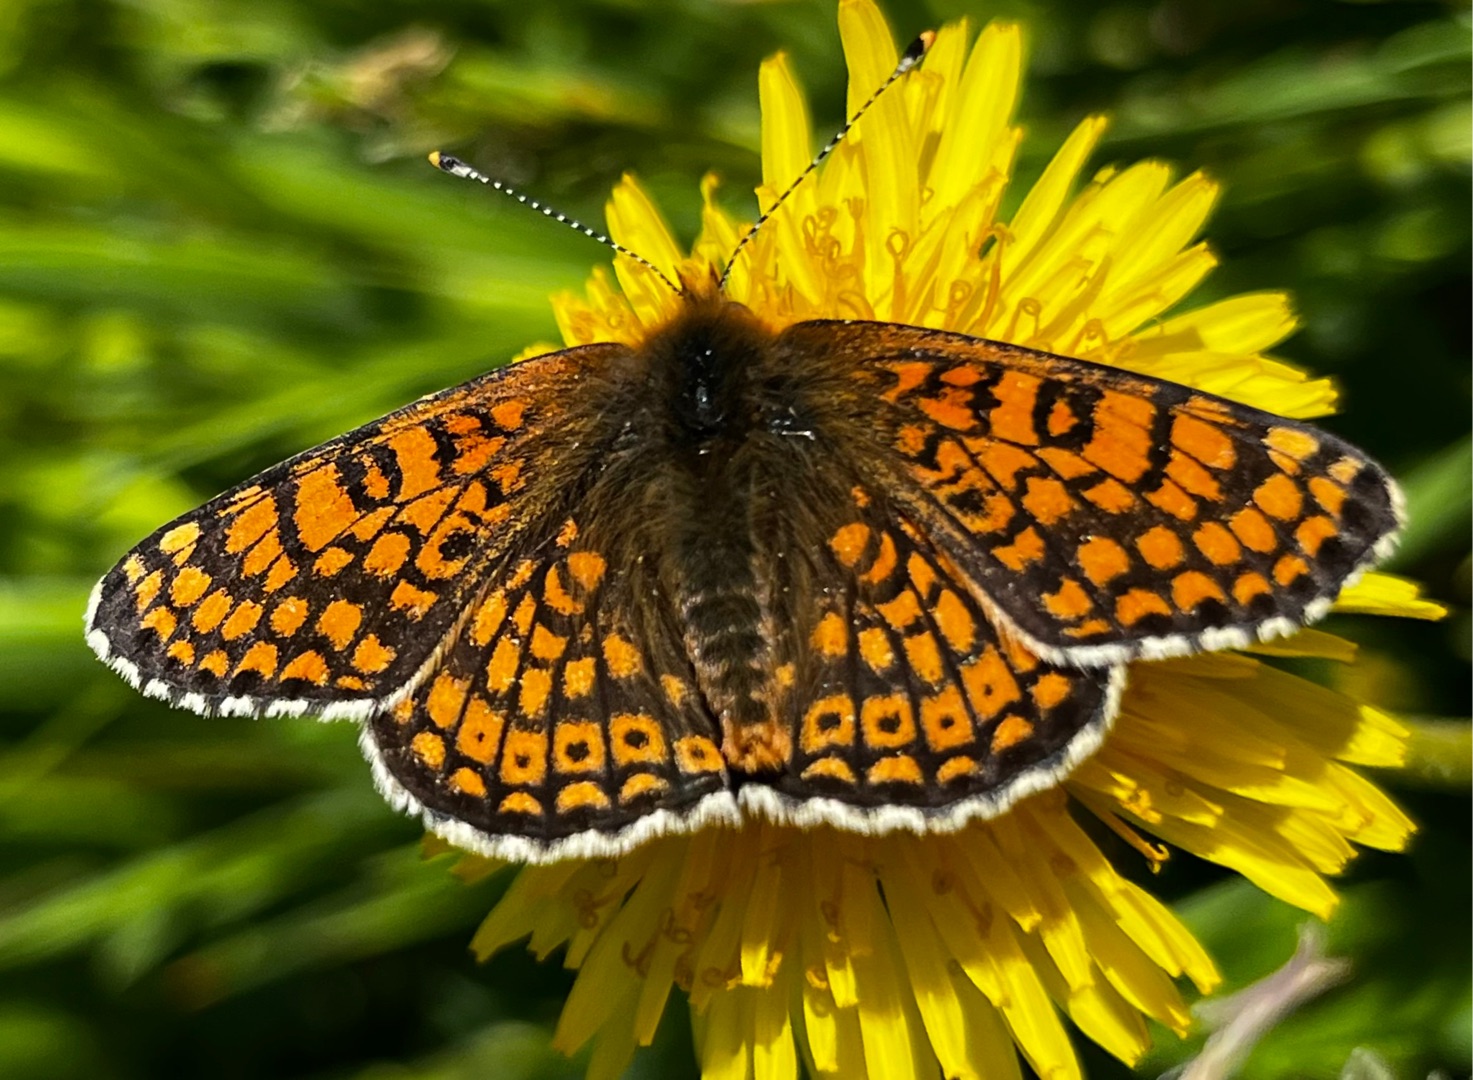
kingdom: Animalia
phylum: Arthropoda
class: Insecta
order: Lepidoptera
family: Nymphalidae
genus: Melitaea
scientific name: Melitaea cinxia
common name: Okkergul pletvinge
